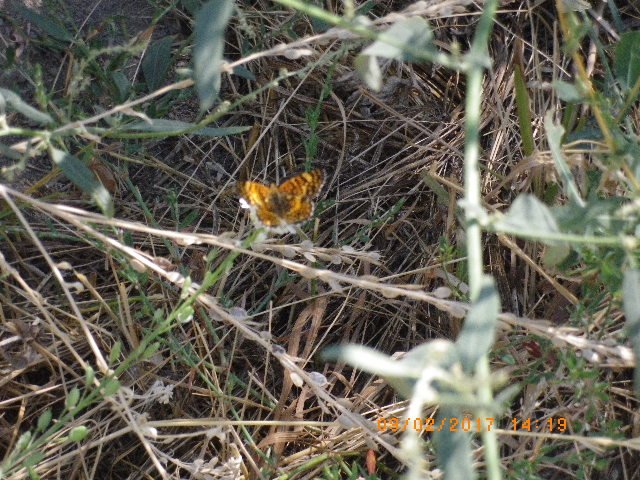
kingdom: Animalia
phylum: Arthropoda
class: Insecta
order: Lepidoptera
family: Nymphalidae
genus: Eresia
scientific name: Eresia aveyrona
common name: Mylitta Crescent
